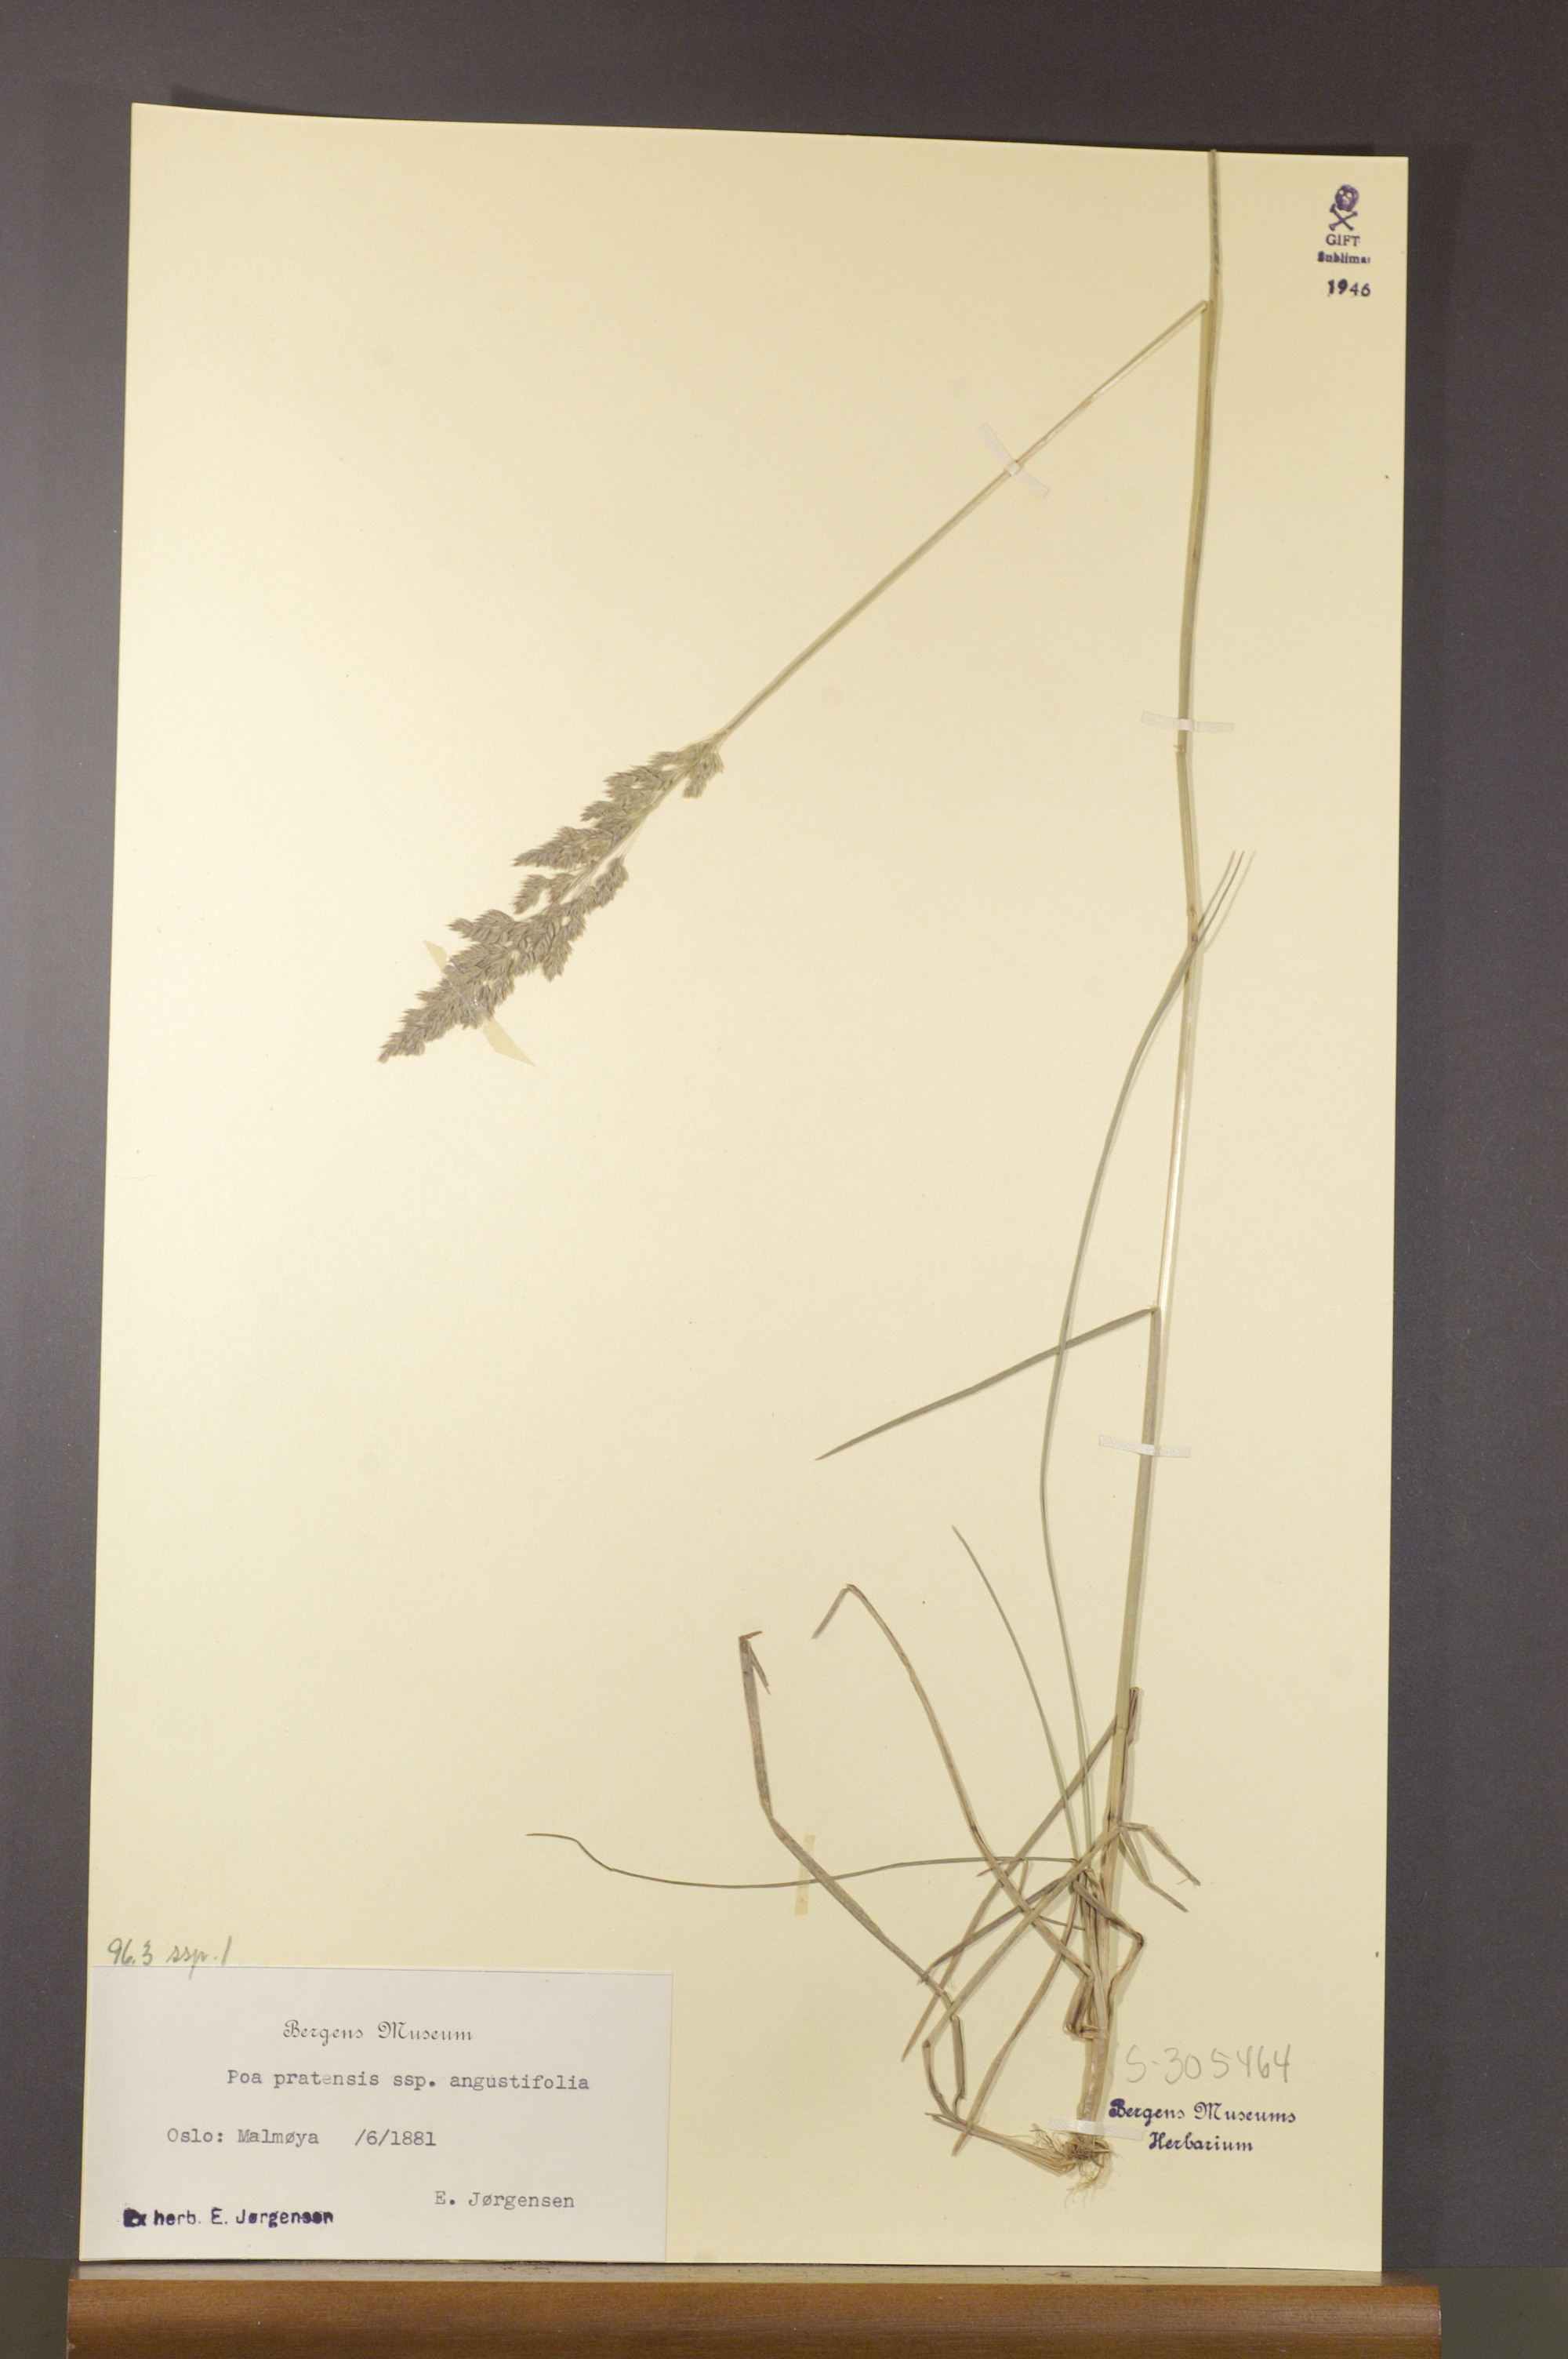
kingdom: Plantae
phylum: Tracheophyta
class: Liliopsida
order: Poales
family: Poaceae
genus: Poa
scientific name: Poa angustifolia
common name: Narrow-leaved meadow-grass
